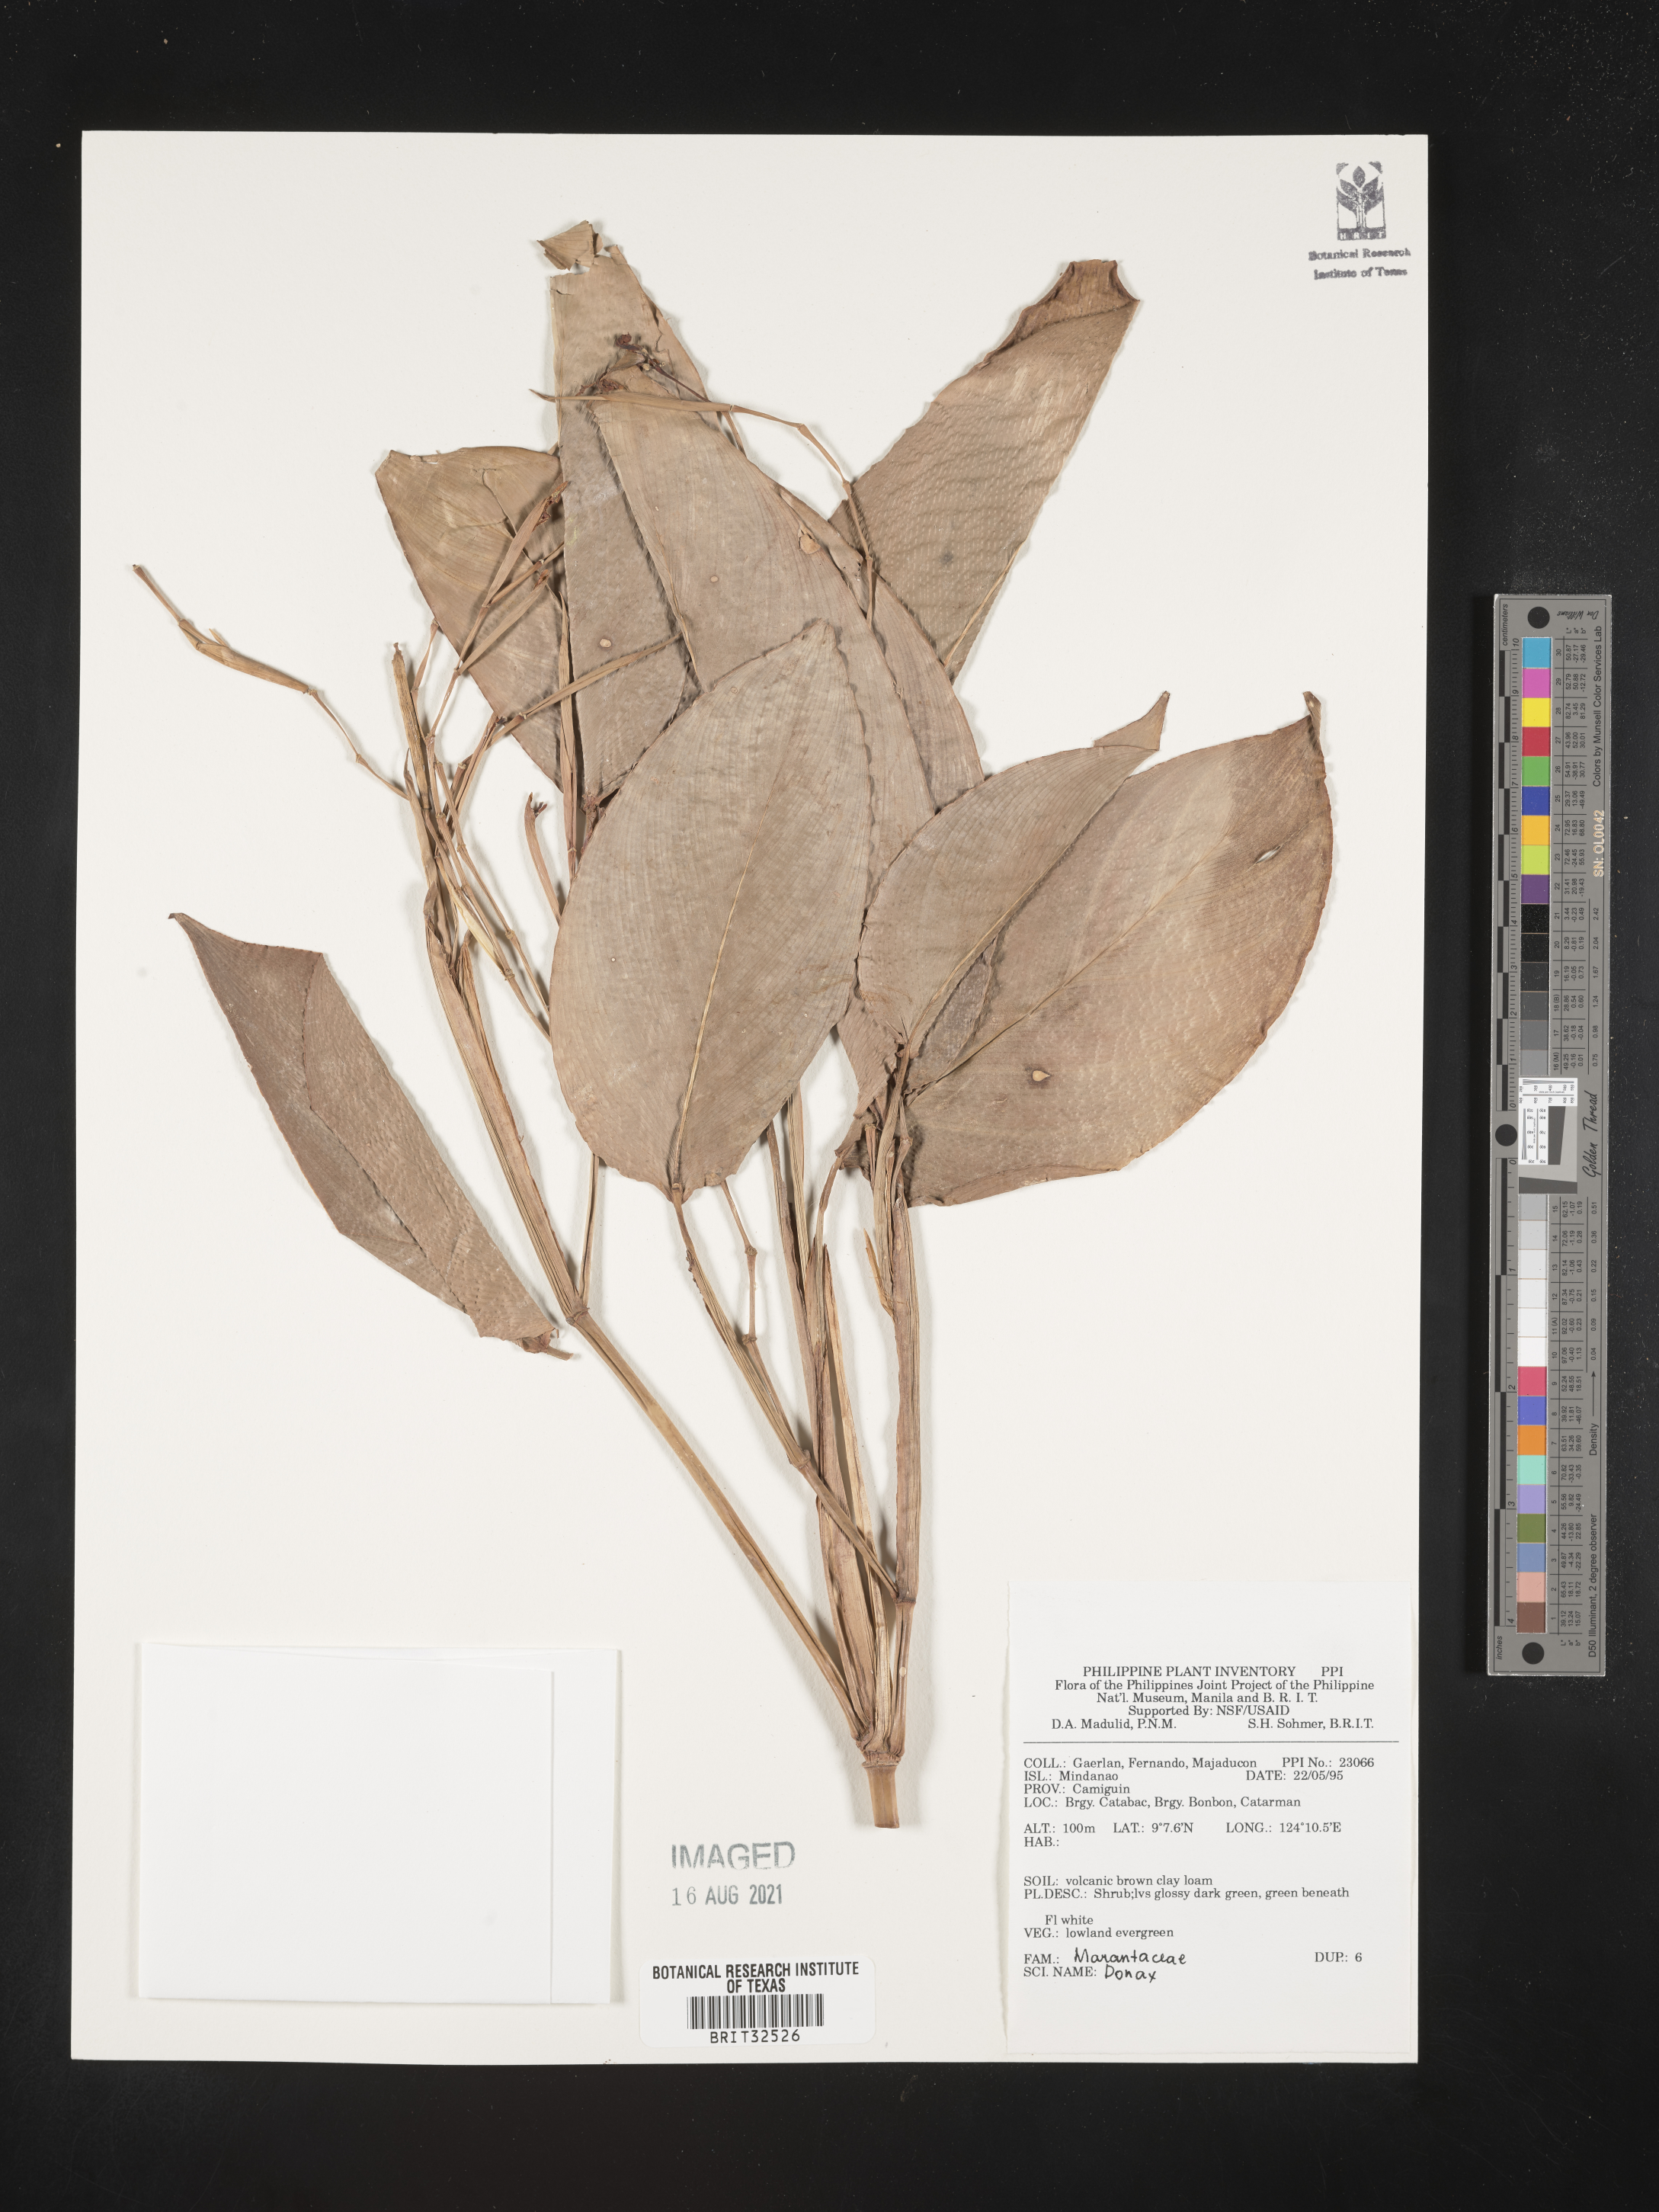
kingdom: Plantae
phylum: Tracheophyta
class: Liliopsida
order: Zingiberales
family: Marantaceae
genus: Donax
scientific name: Donax
